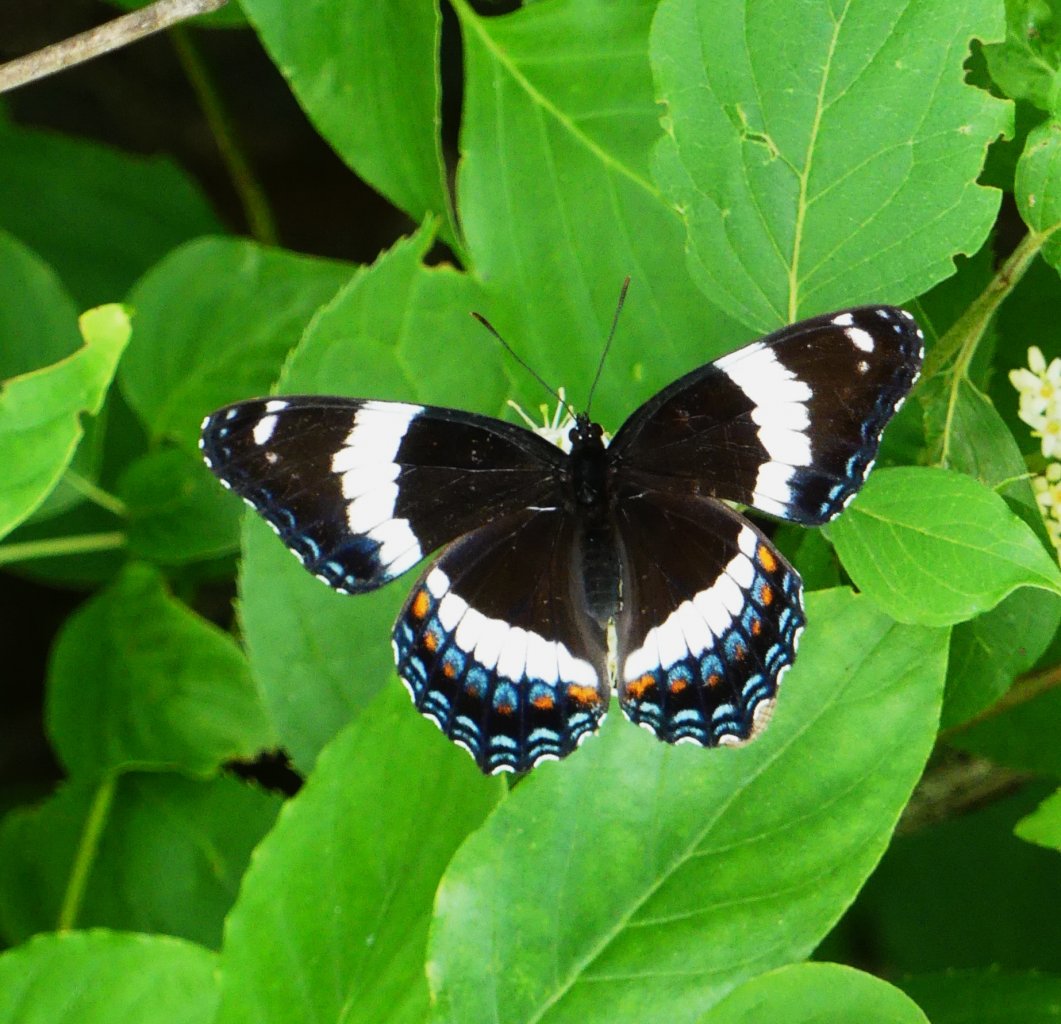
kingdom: Animalia
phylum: Arthropoda
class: Insecta
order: Lepidoptera
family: Nymphalidae
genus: Limenitis
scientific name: Limenitis arthemis
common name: Red-spotted Admiral
